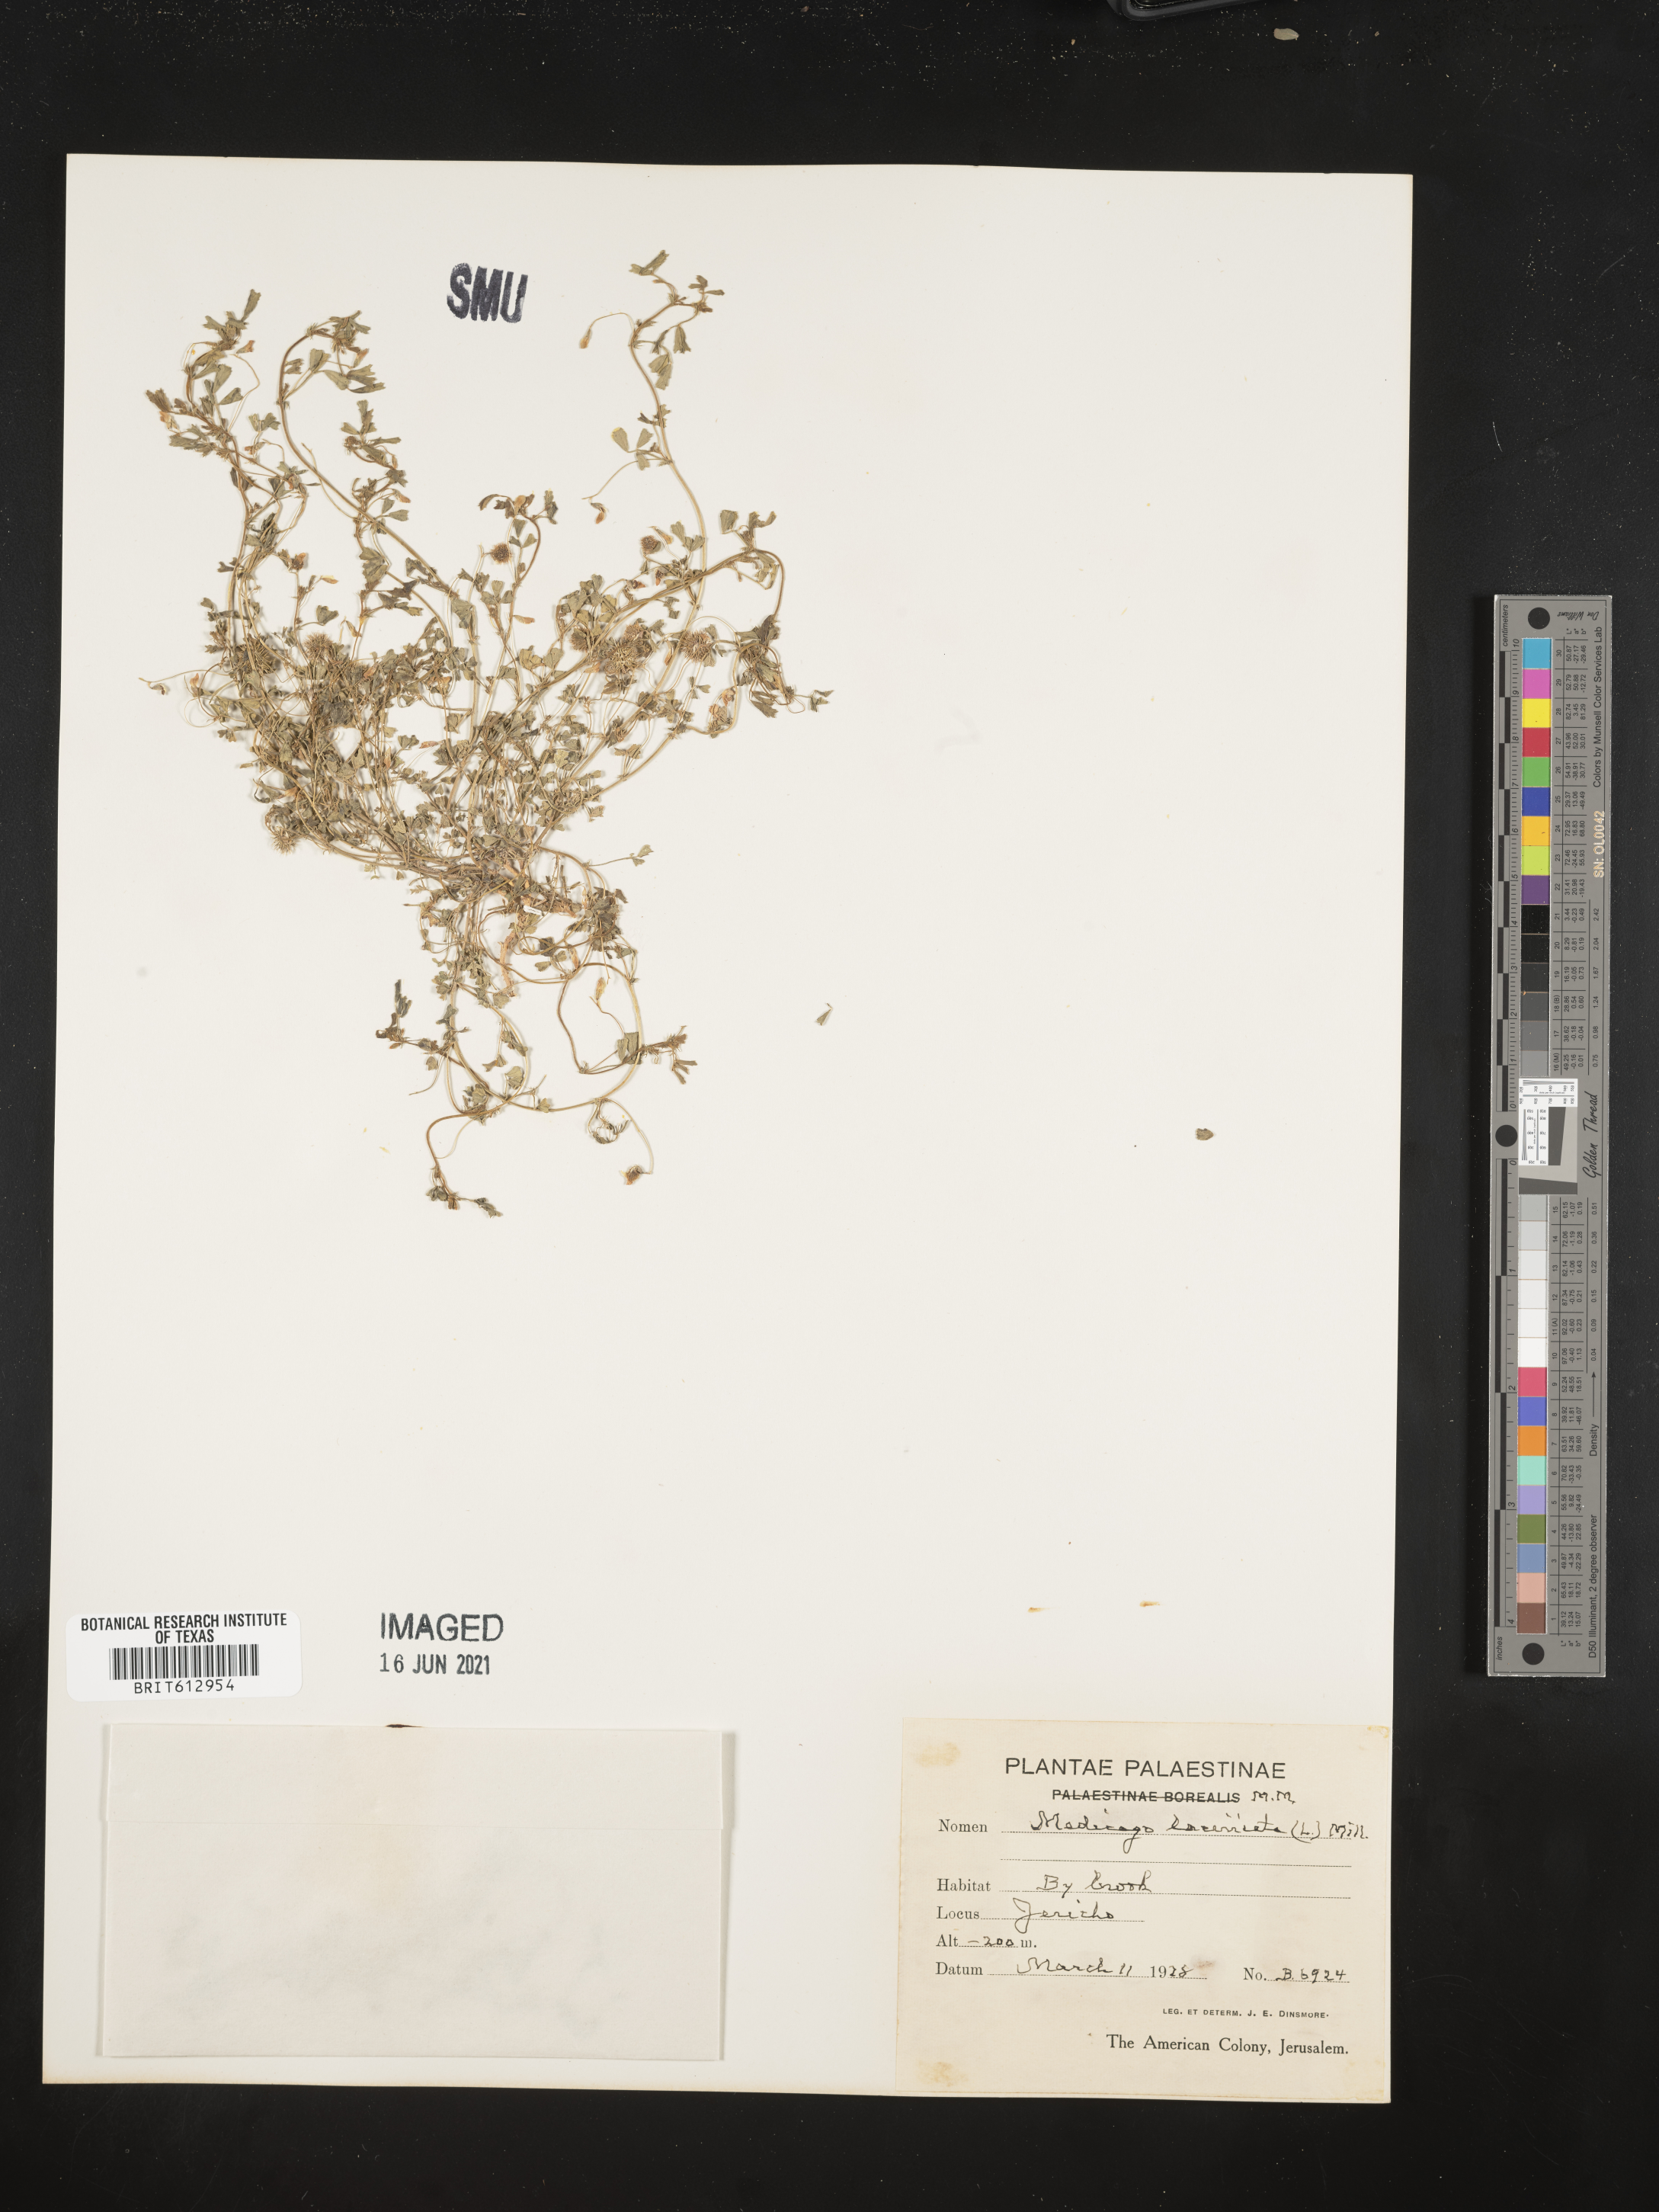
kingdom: Plantae
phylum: Tracheophyta
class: Magnoliopsida
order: Fabales
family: Fabaceae
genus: Medicago
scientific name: Medicago laciniata
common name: Tattered medick
